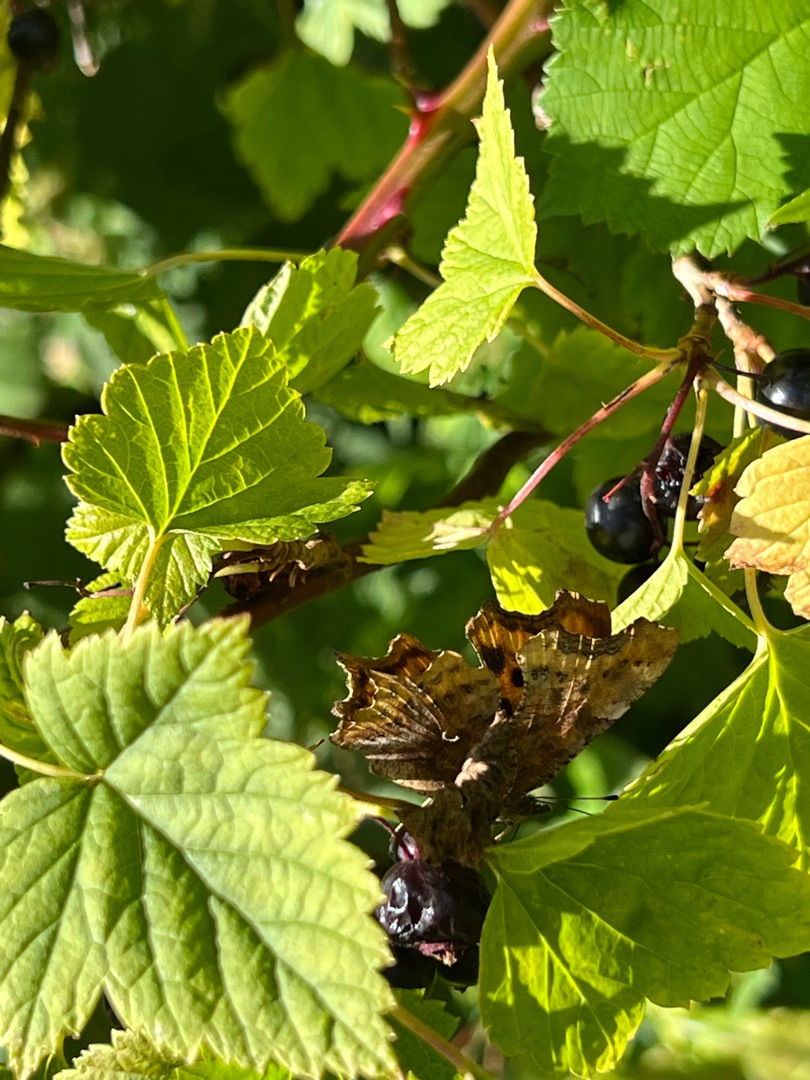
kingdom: Animalia
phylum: Arthropoda
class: Insecta
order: Lepidoptera
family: Nymphalidae
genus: Polygonia
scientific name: Polygonia c-album
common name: Det hvide C
